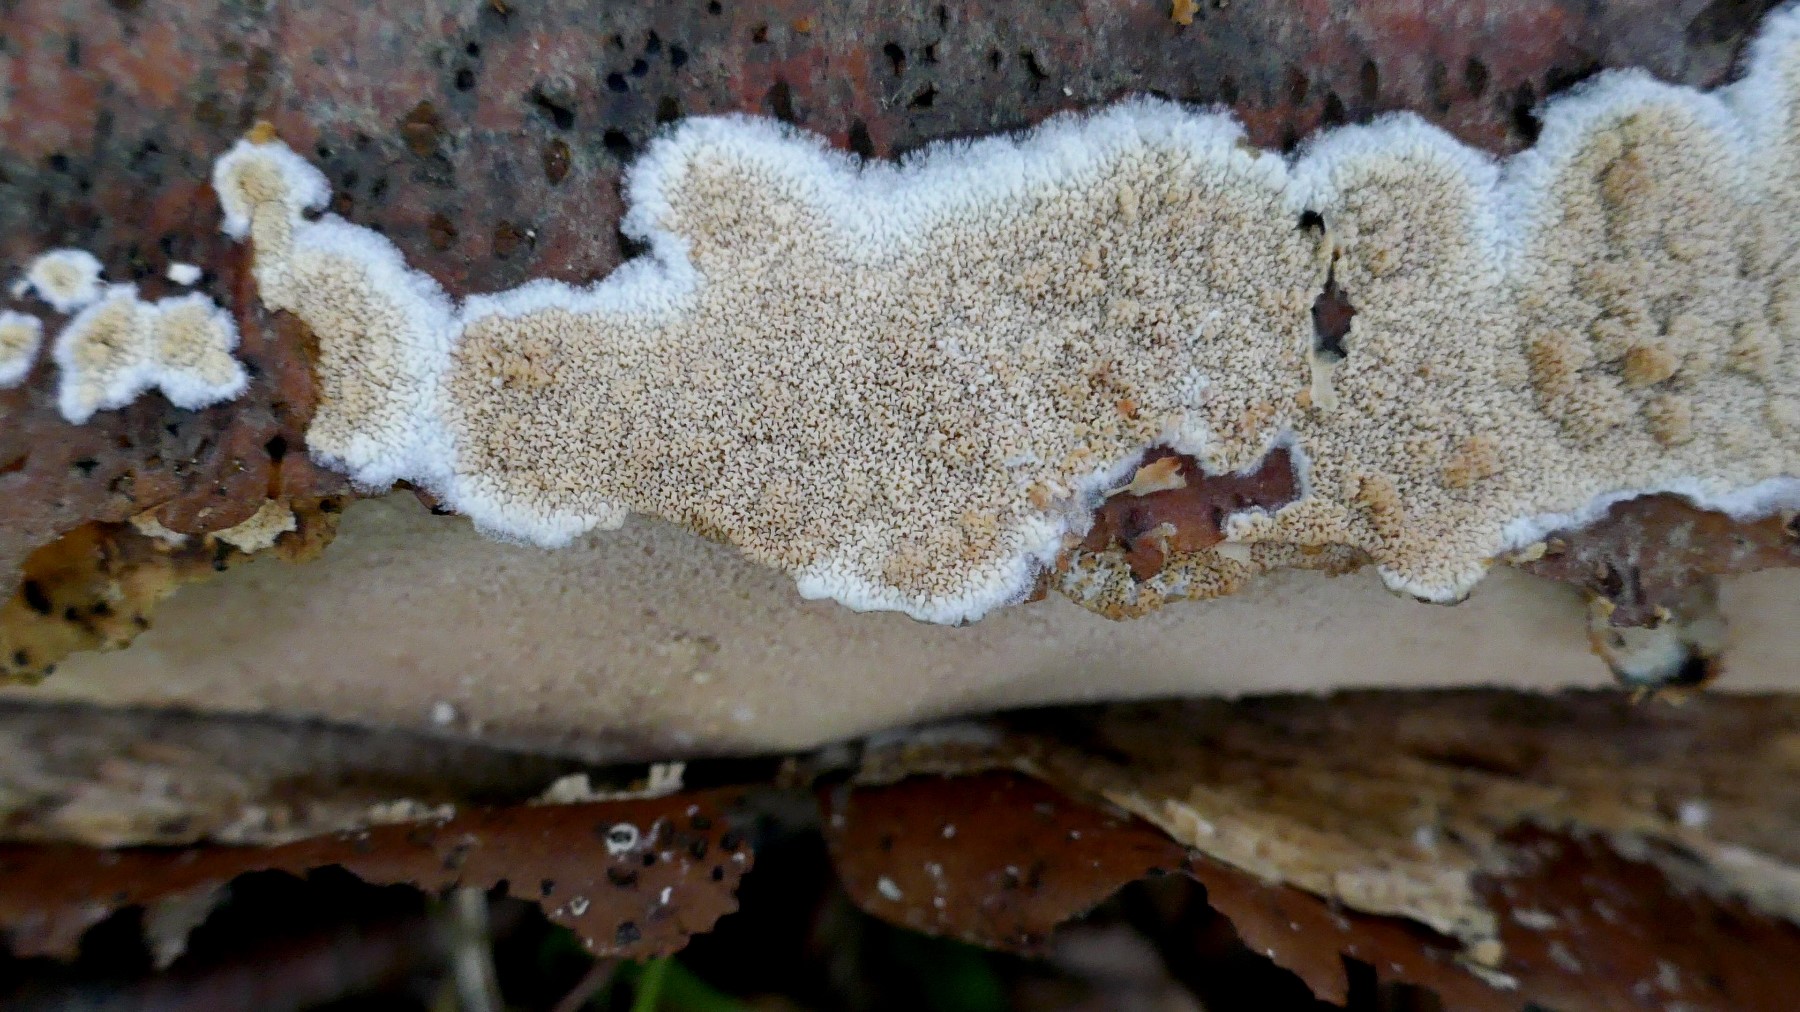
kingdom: Fungi
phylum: Basidiomycota
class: Agaricomycetes
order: Polyporales
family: Meruliaceae
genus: Phlebia
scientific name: Phlebia rufa
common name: ege-åresvamp
